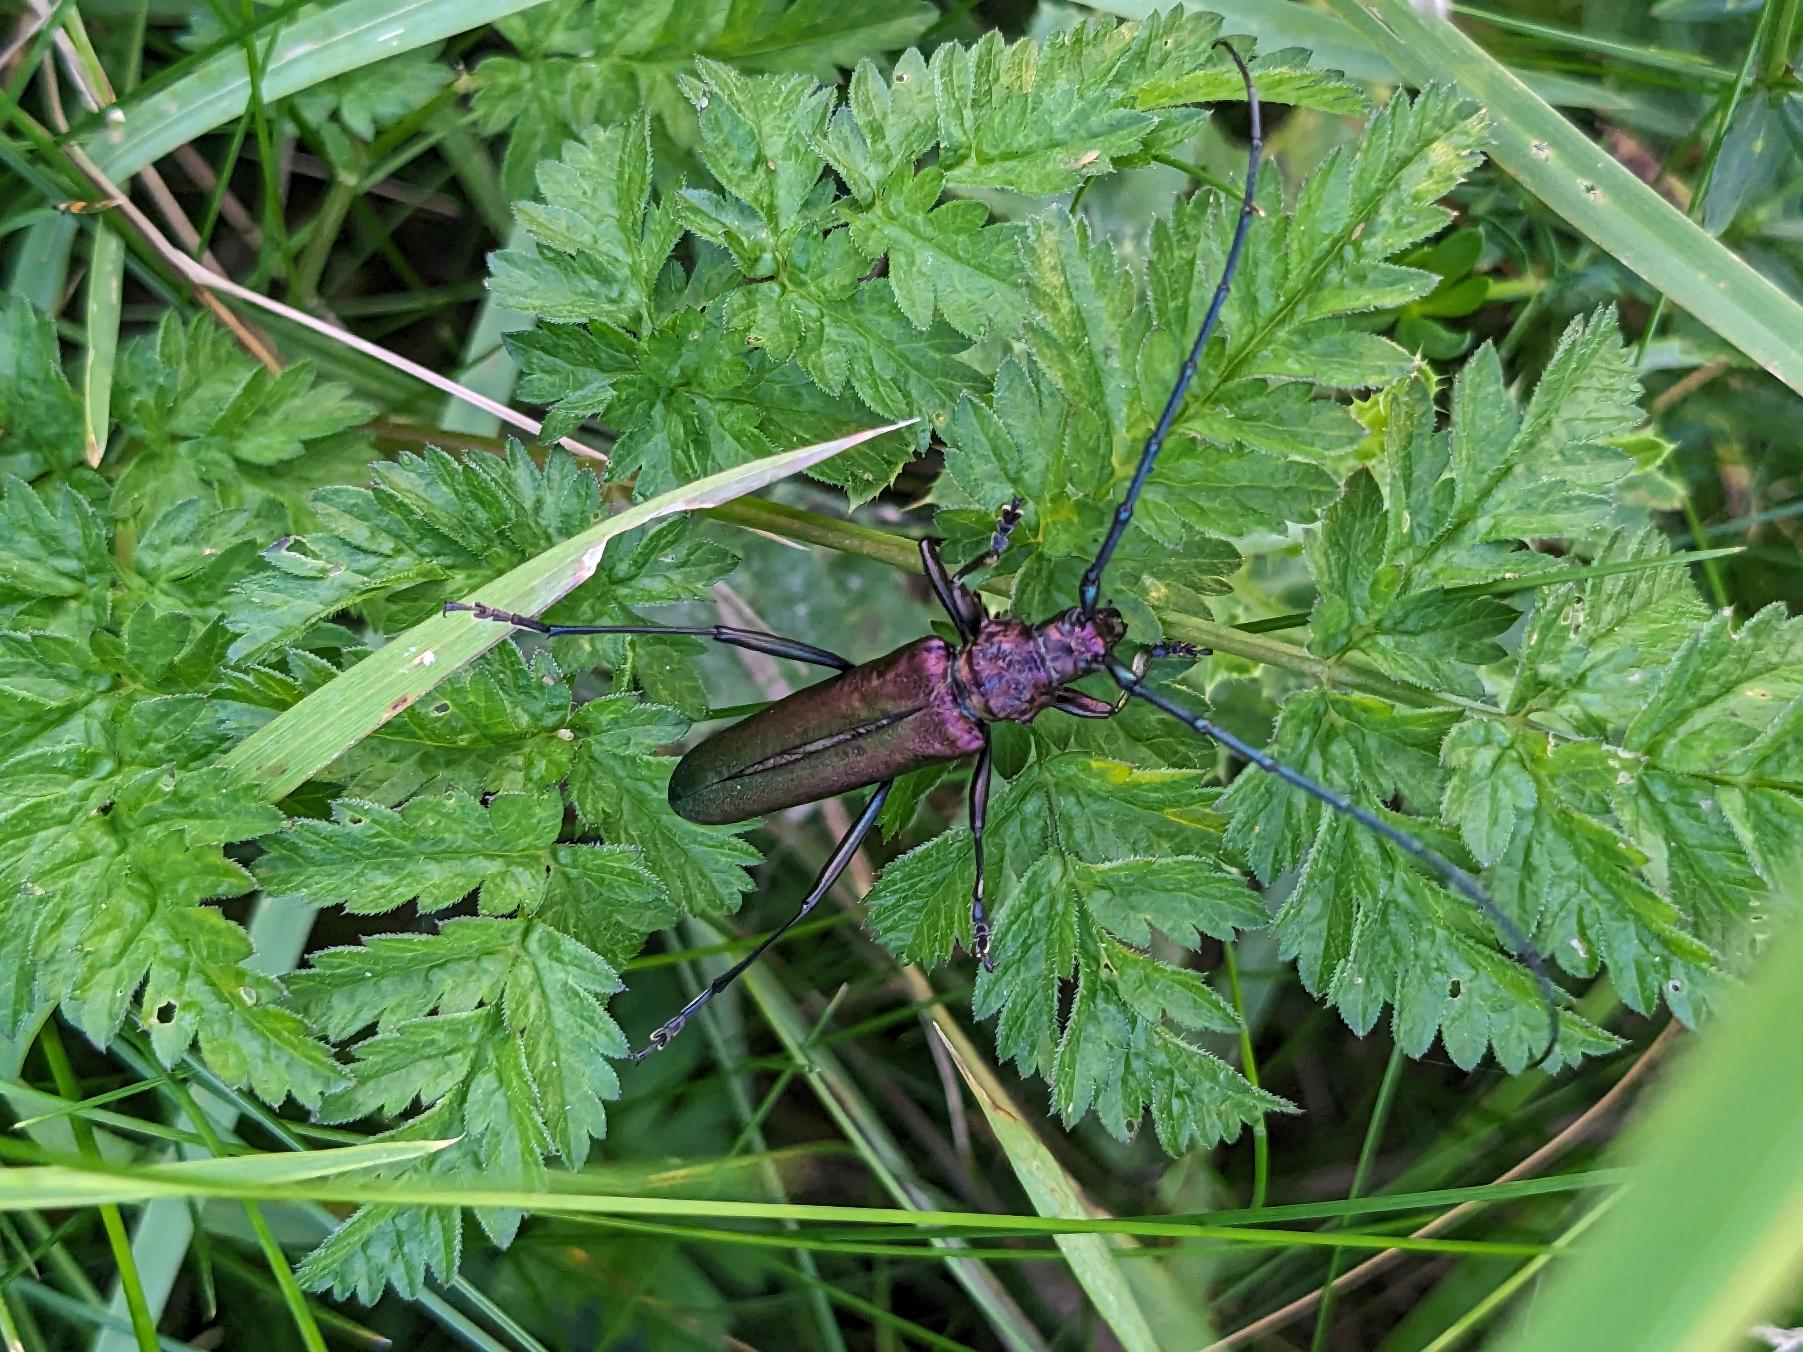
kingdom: Animalia
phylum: Arthropoda
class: Insecta
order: Coleoptera
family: Cerambycidae
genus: Aromia
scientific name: Aromia moschata
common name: Moskusbuk
